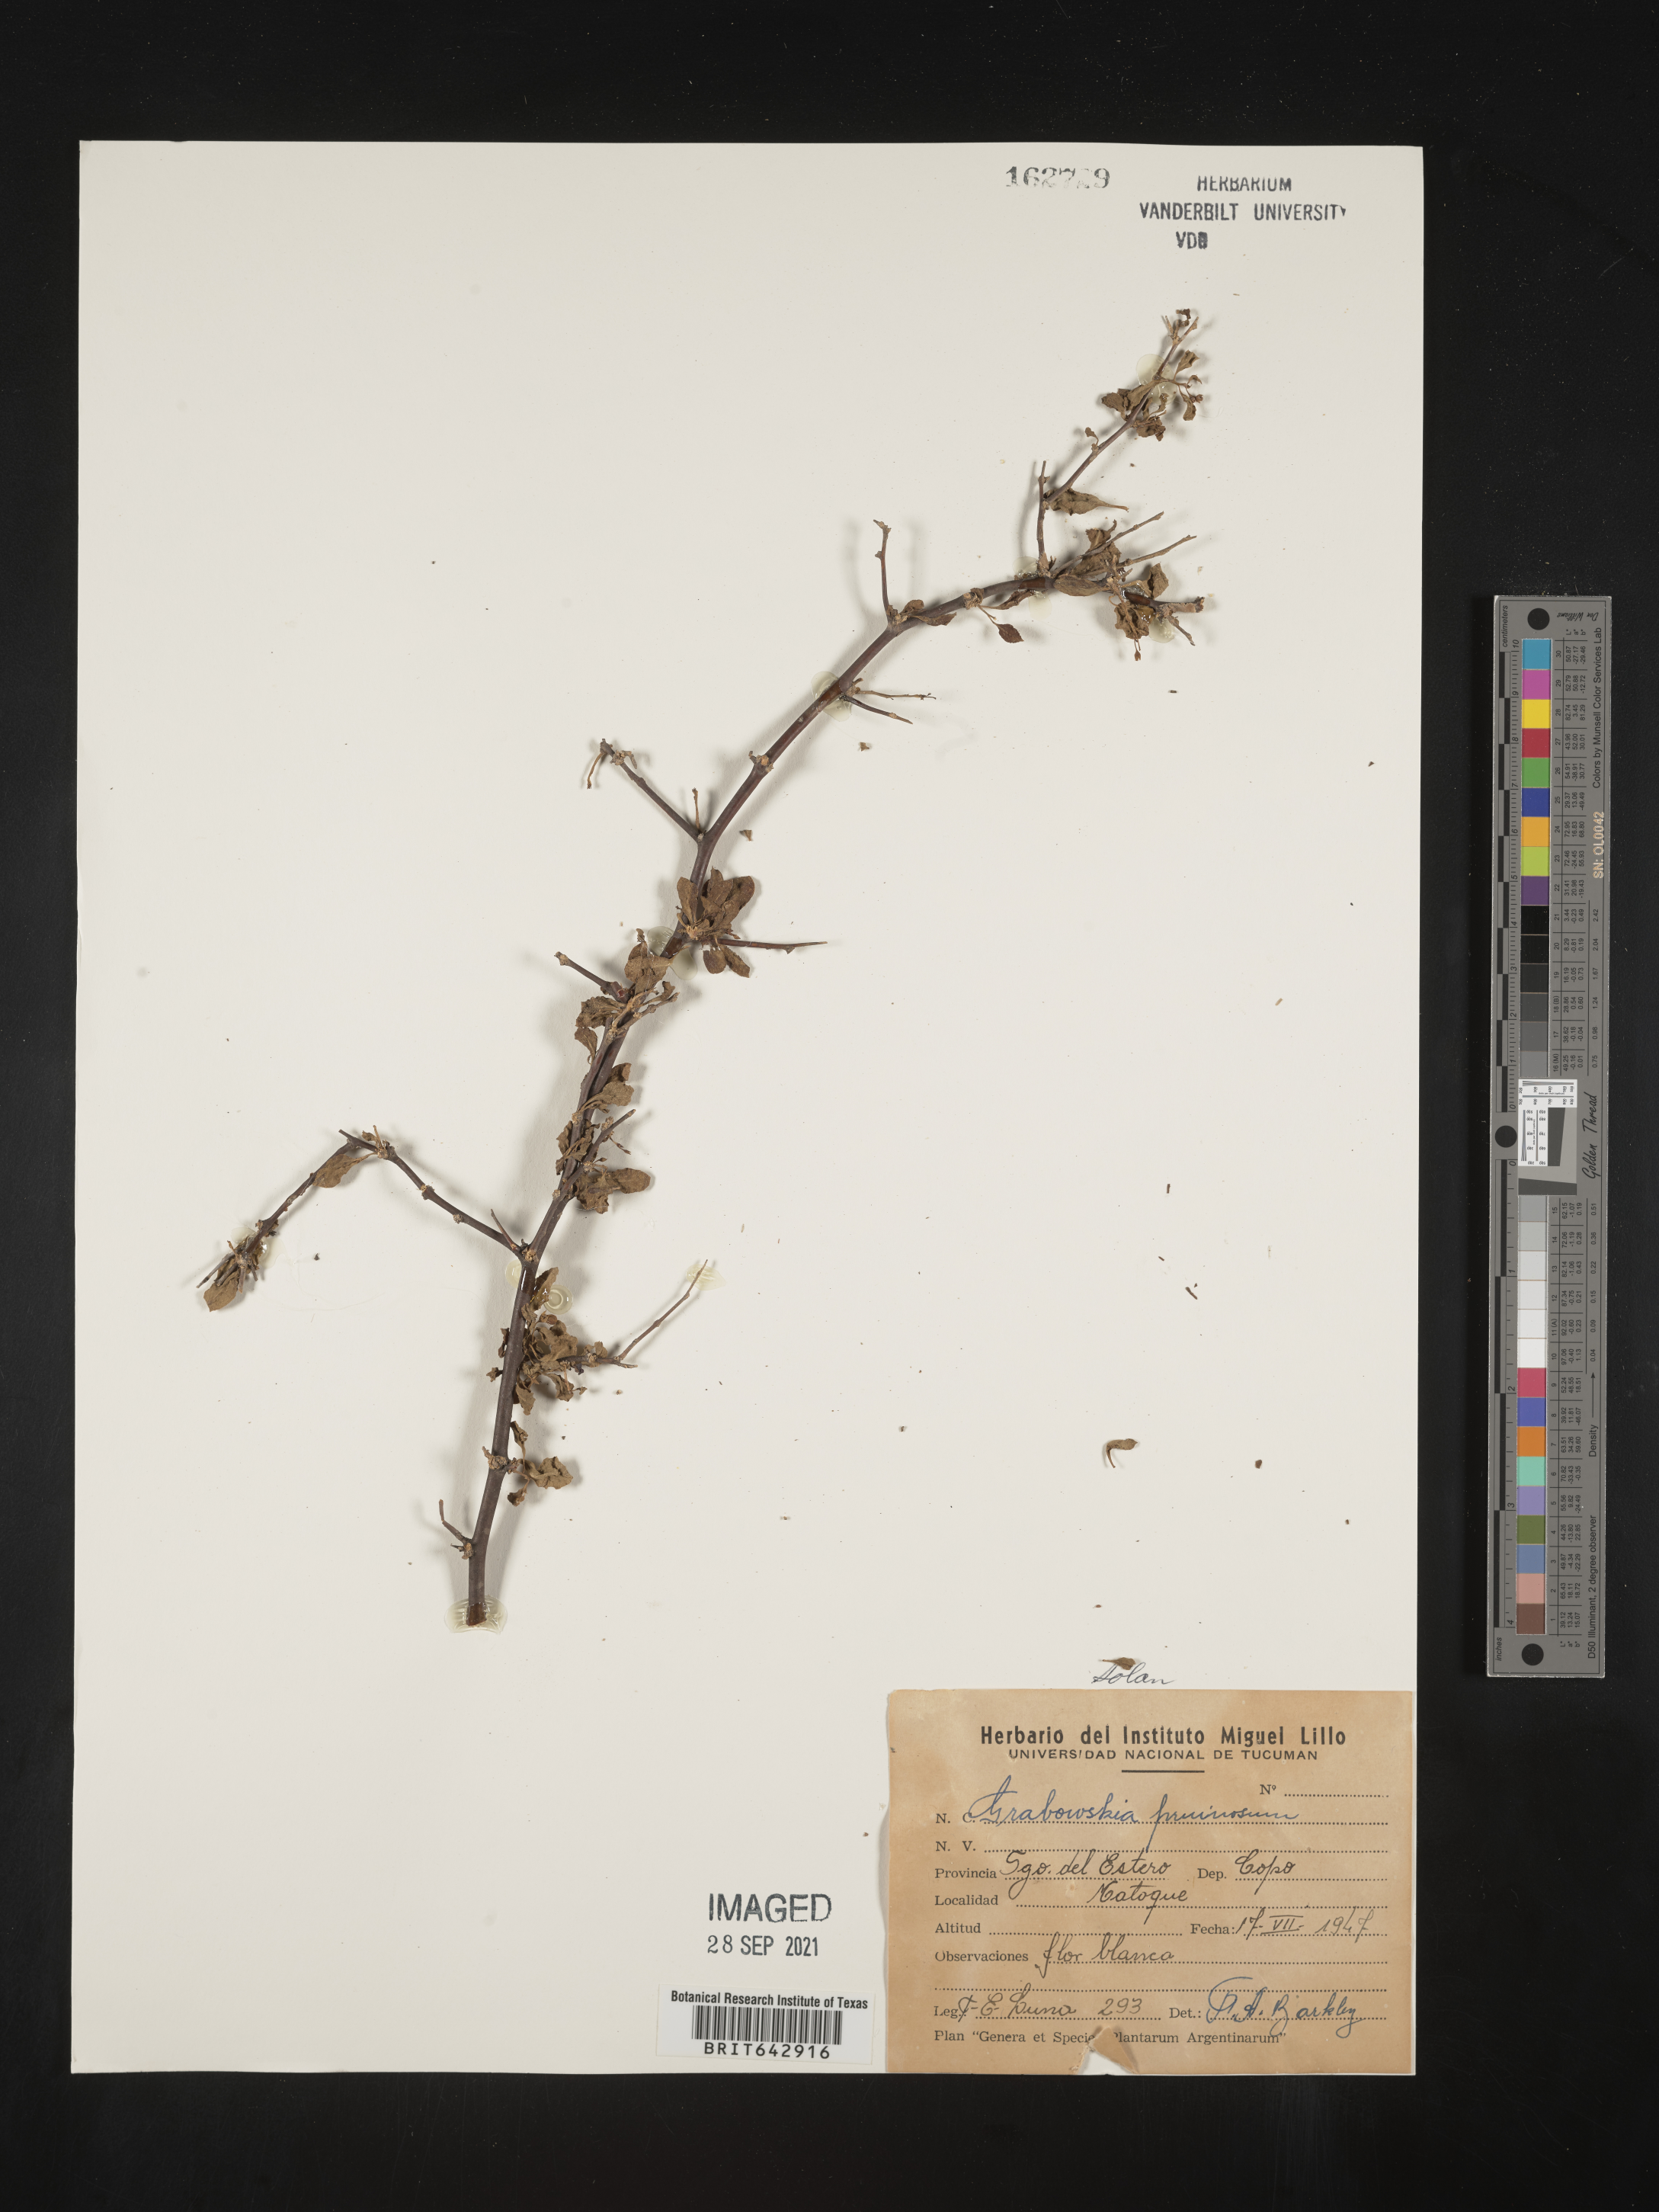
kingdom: Plantae
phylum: Tracheophyta
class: Magnoliopsida
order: Solanales
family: Solanaceae
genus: Lycium
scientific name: Lycium
